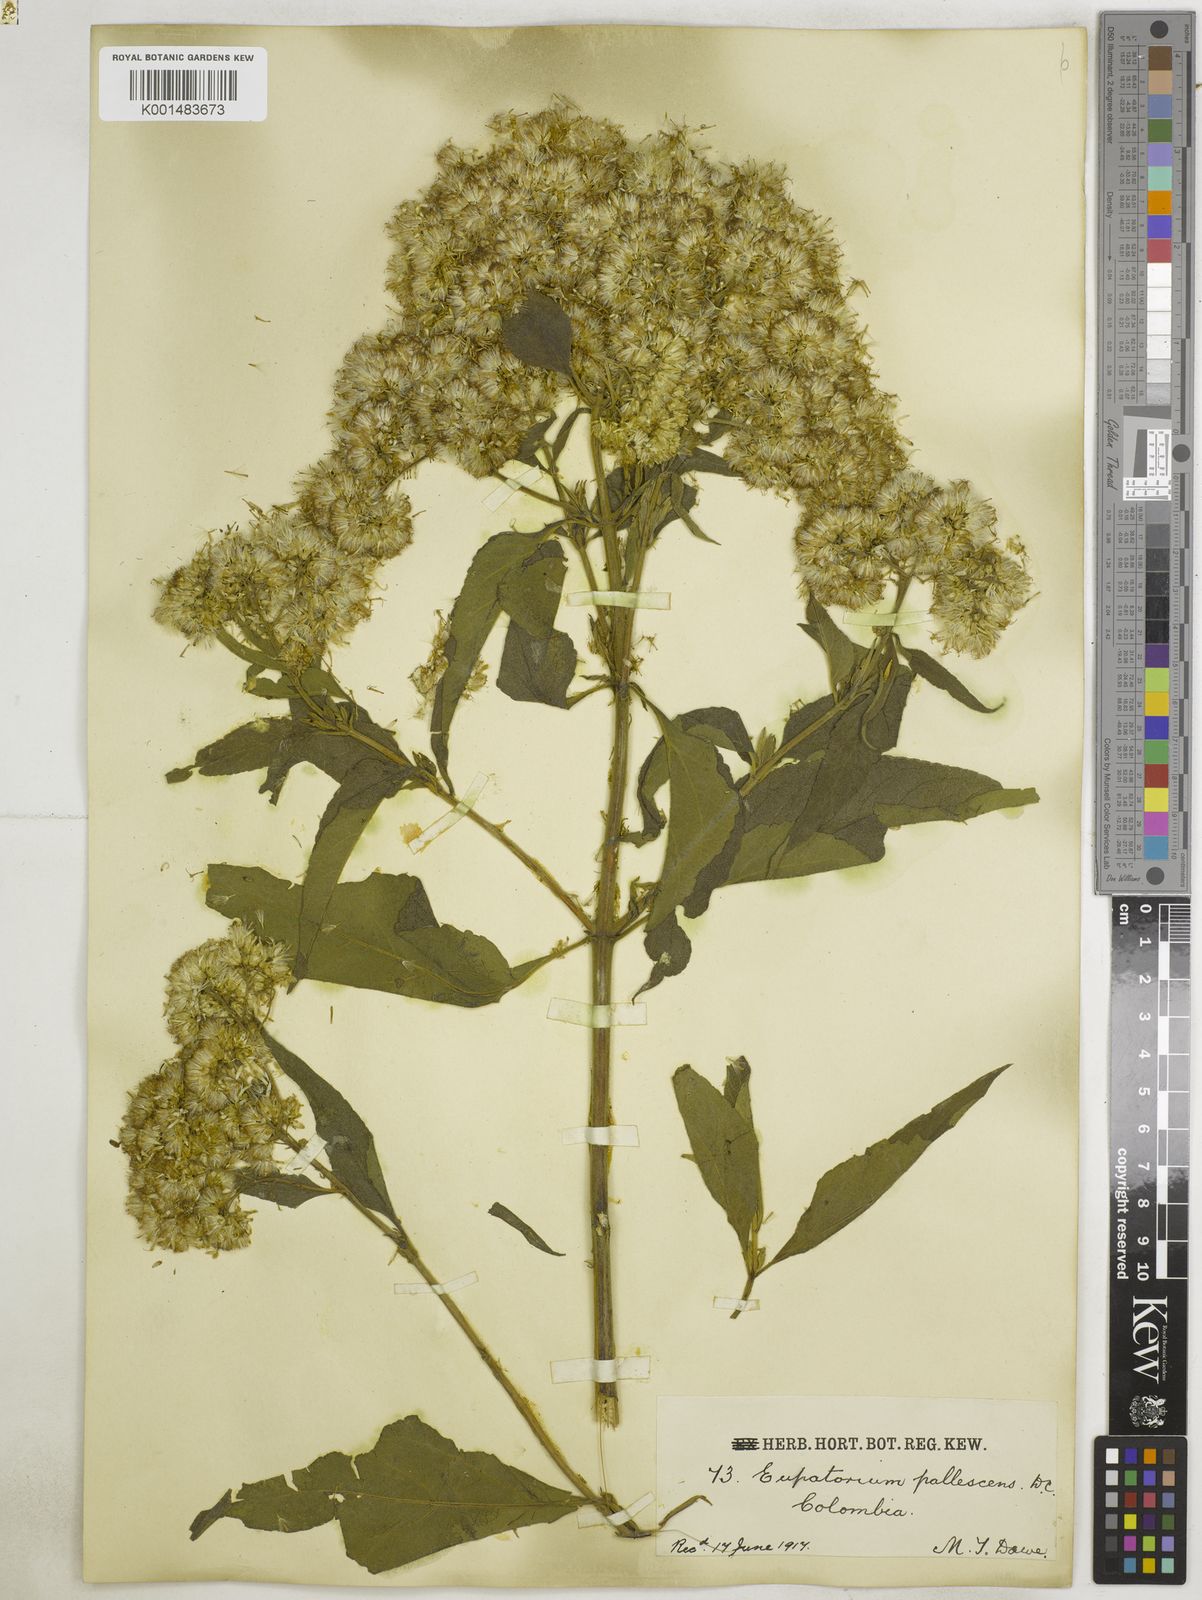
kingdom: Plantae
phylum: Tracheophyta
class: Magnoliopsida
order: Asterales
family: Asteraceae
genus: Austroeupatorium
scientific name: Austroeupatorium inulifolium
